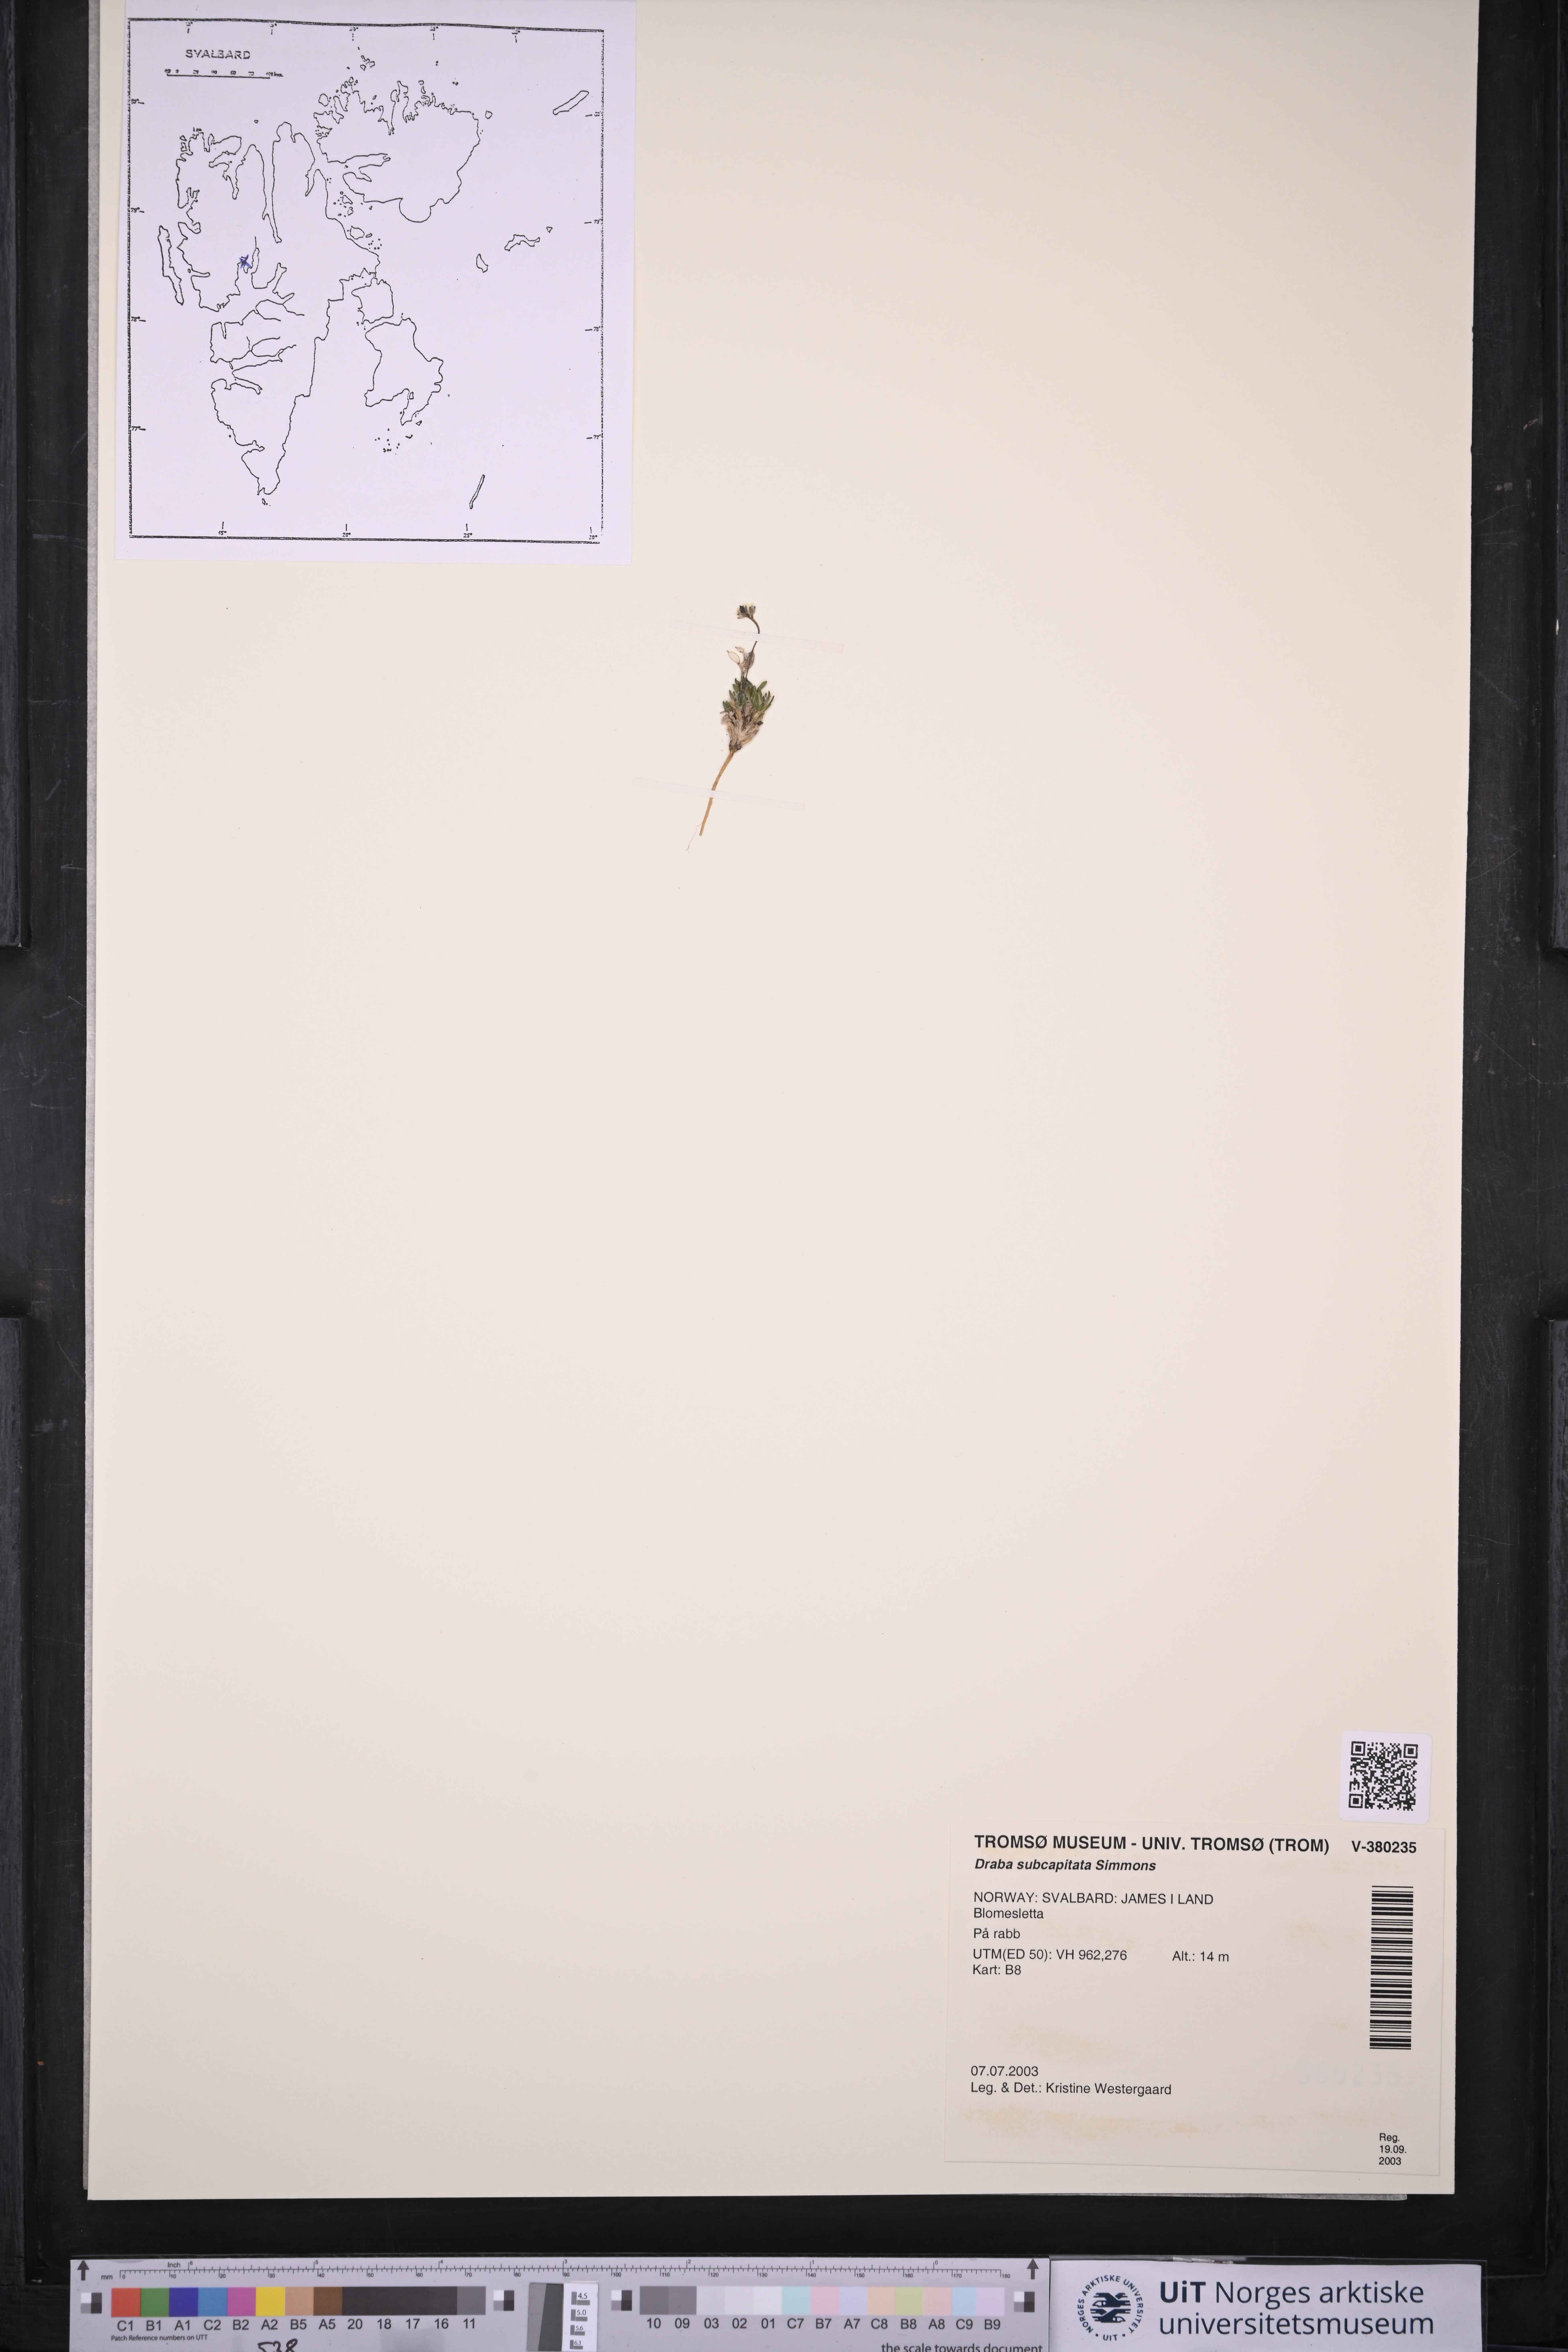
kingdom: Plantae
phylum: Tracheophyta
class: Magnoliopsida
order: Brassicales
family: Brassicaceae
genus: Draba
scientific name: Draba subcapitata
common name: Ellesmere island draba
